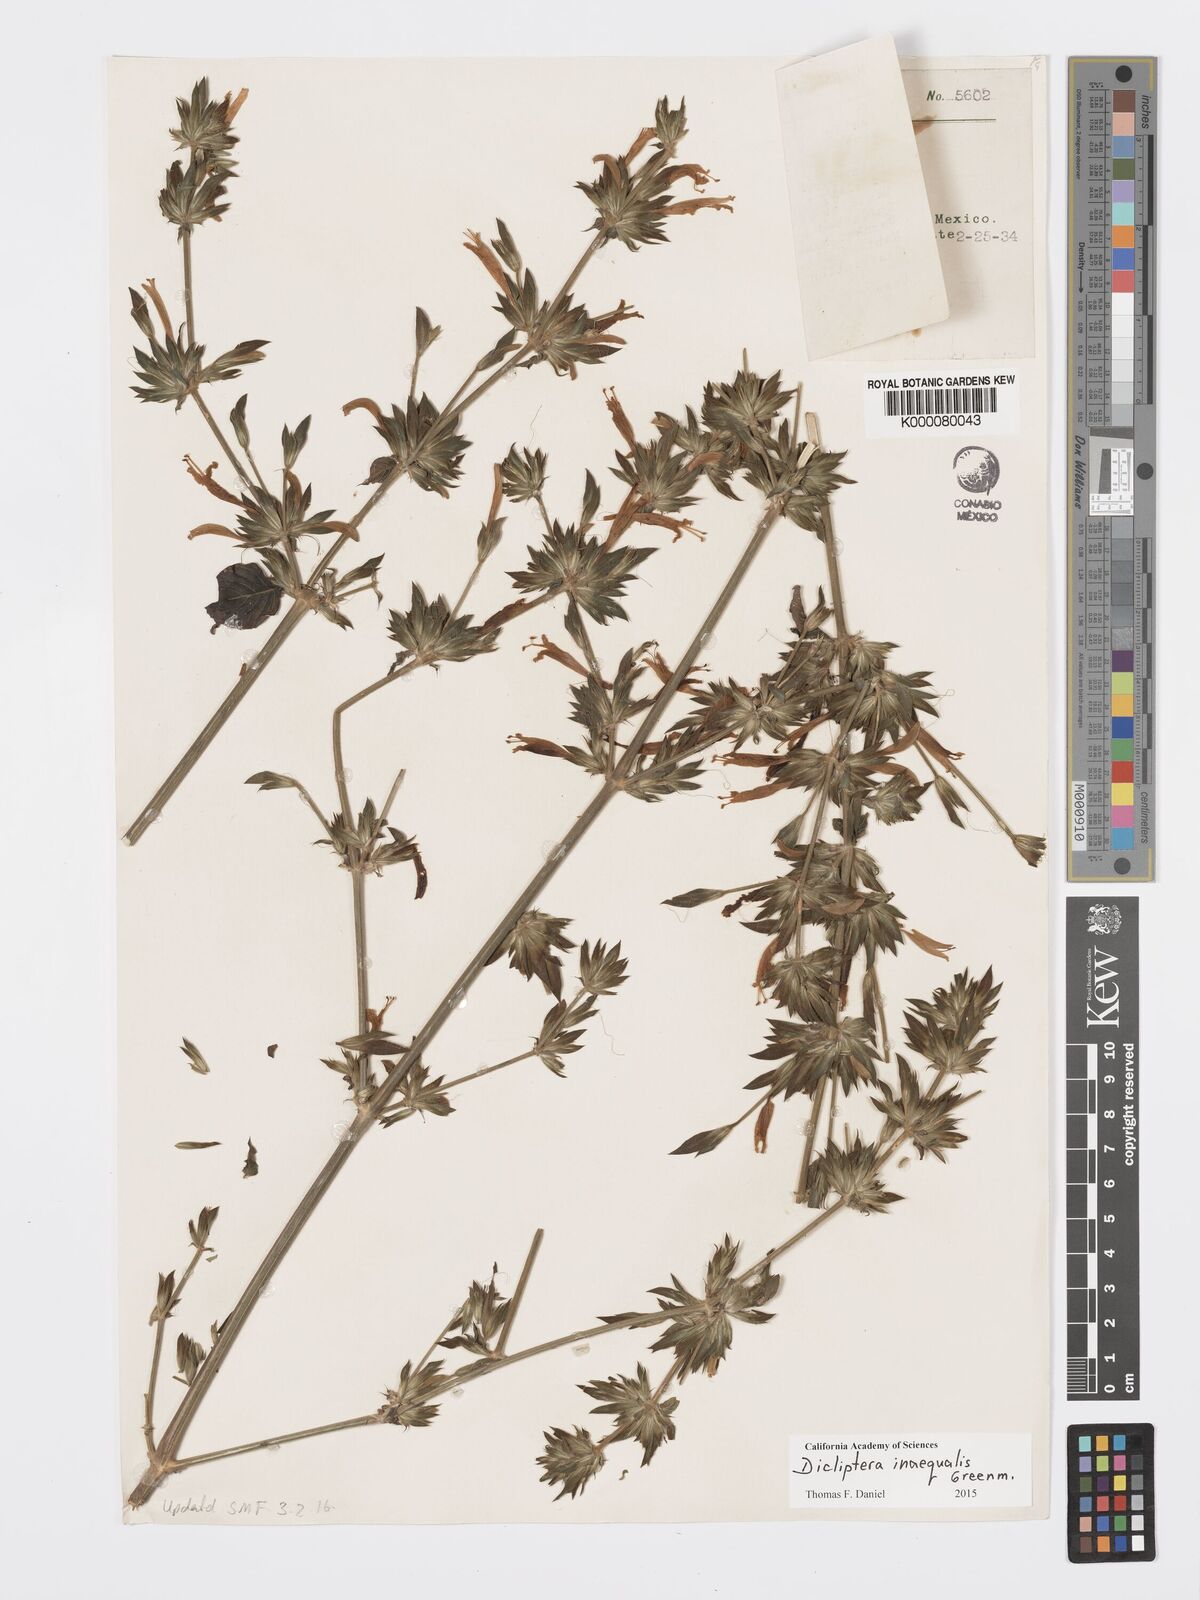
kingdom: Plantae
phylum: Tracheophyta
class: Magnoliopsida
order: Lamiales
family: Acanthaceae
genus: Dicliptera
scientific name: Dicliptera
